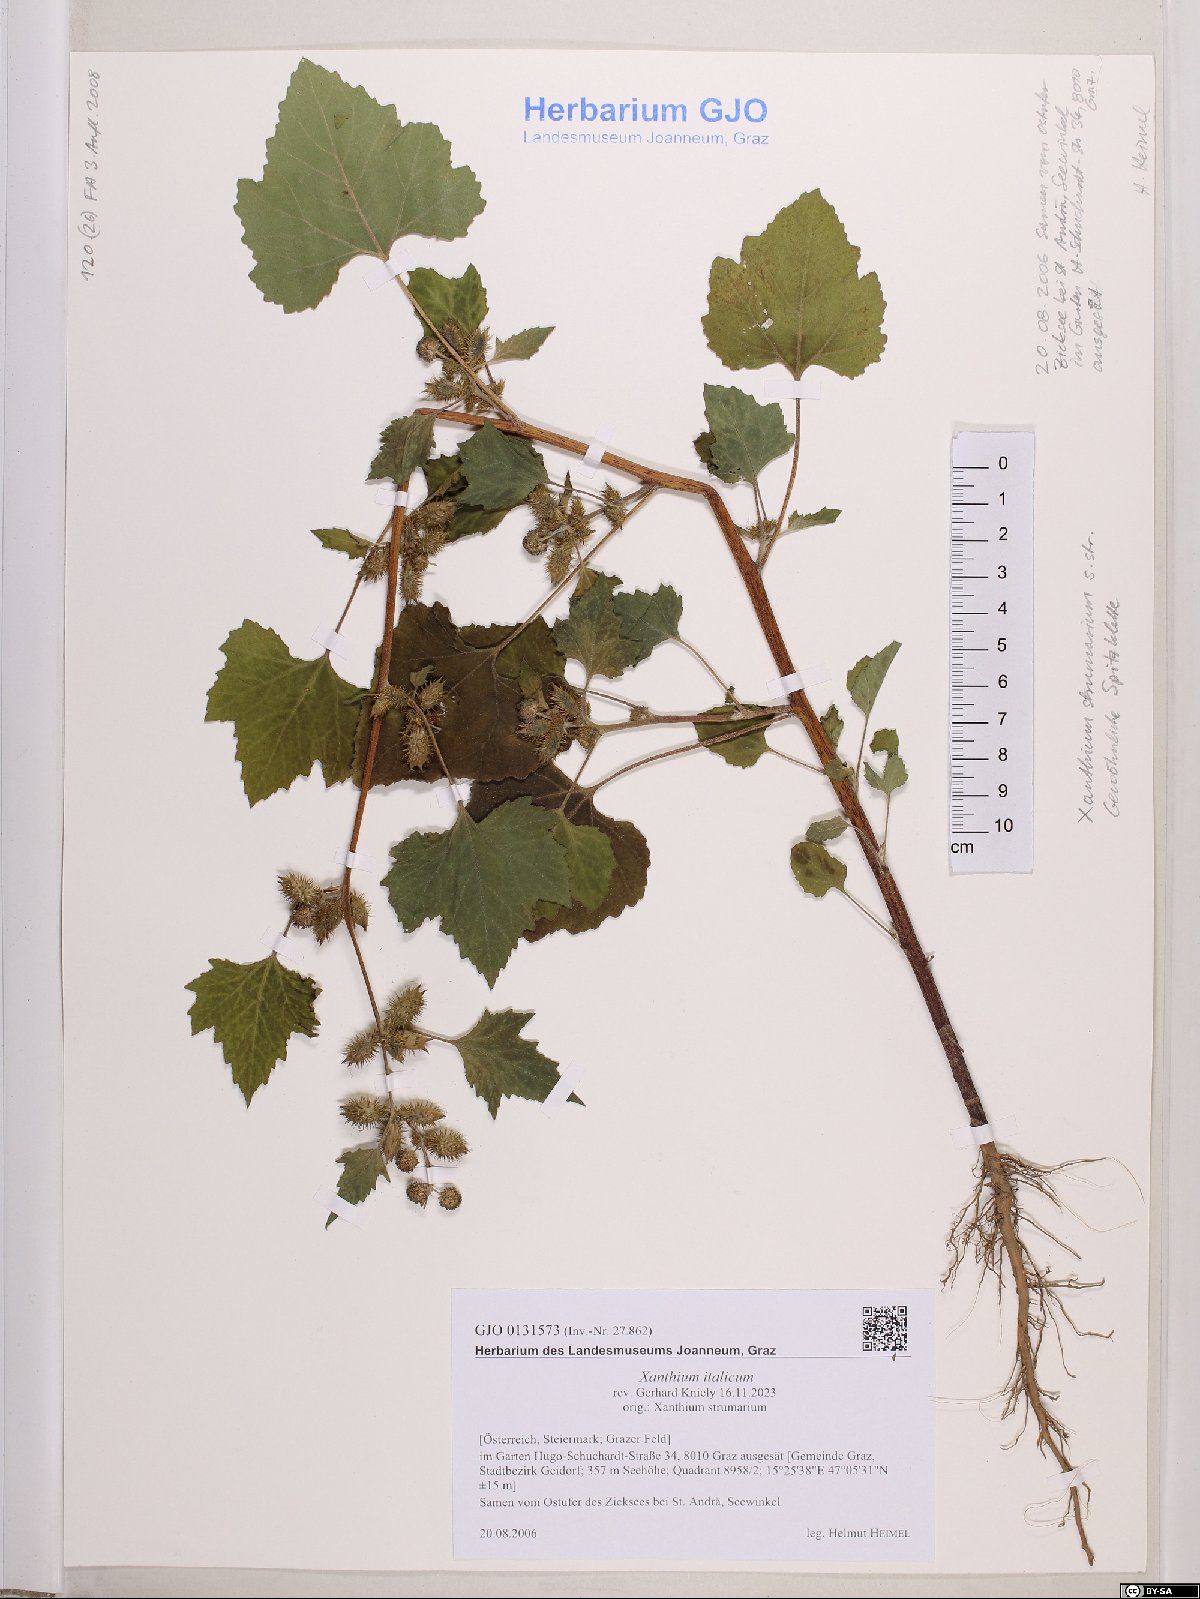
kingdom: Plantae
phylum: Tracheophyta
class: Magnoliopsida
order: Asterales
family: Asteraceae
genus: Xanthium
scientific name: Xanthium orientale
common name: Californian burr
